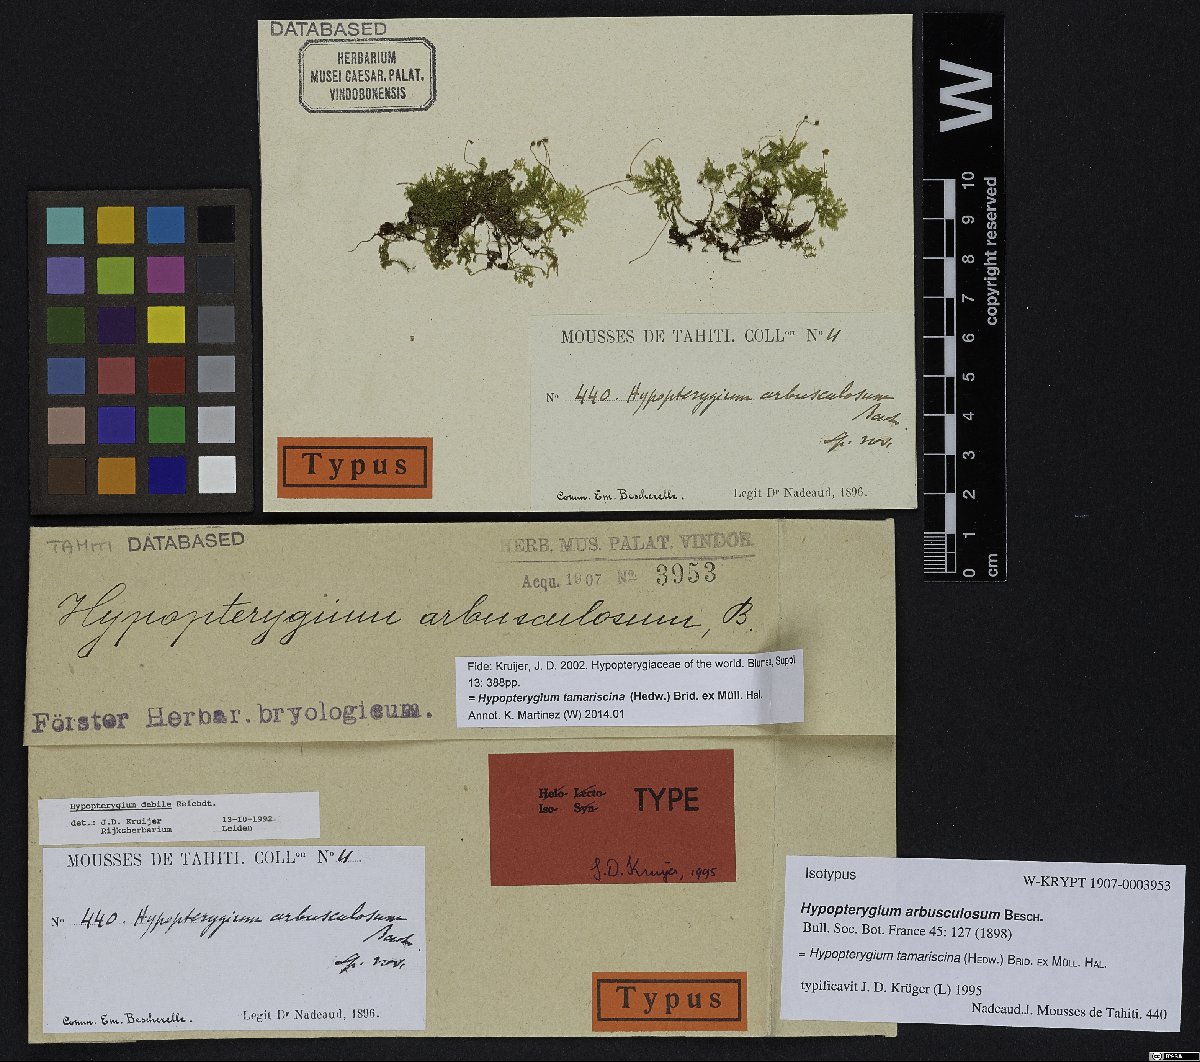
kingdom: Plantae
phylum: Bryophyta
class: Bryopsida
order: Hypopterygiales
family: Hypopterygiaceae
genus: Hypopterygium
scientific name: Hypopterygium tamarisci
